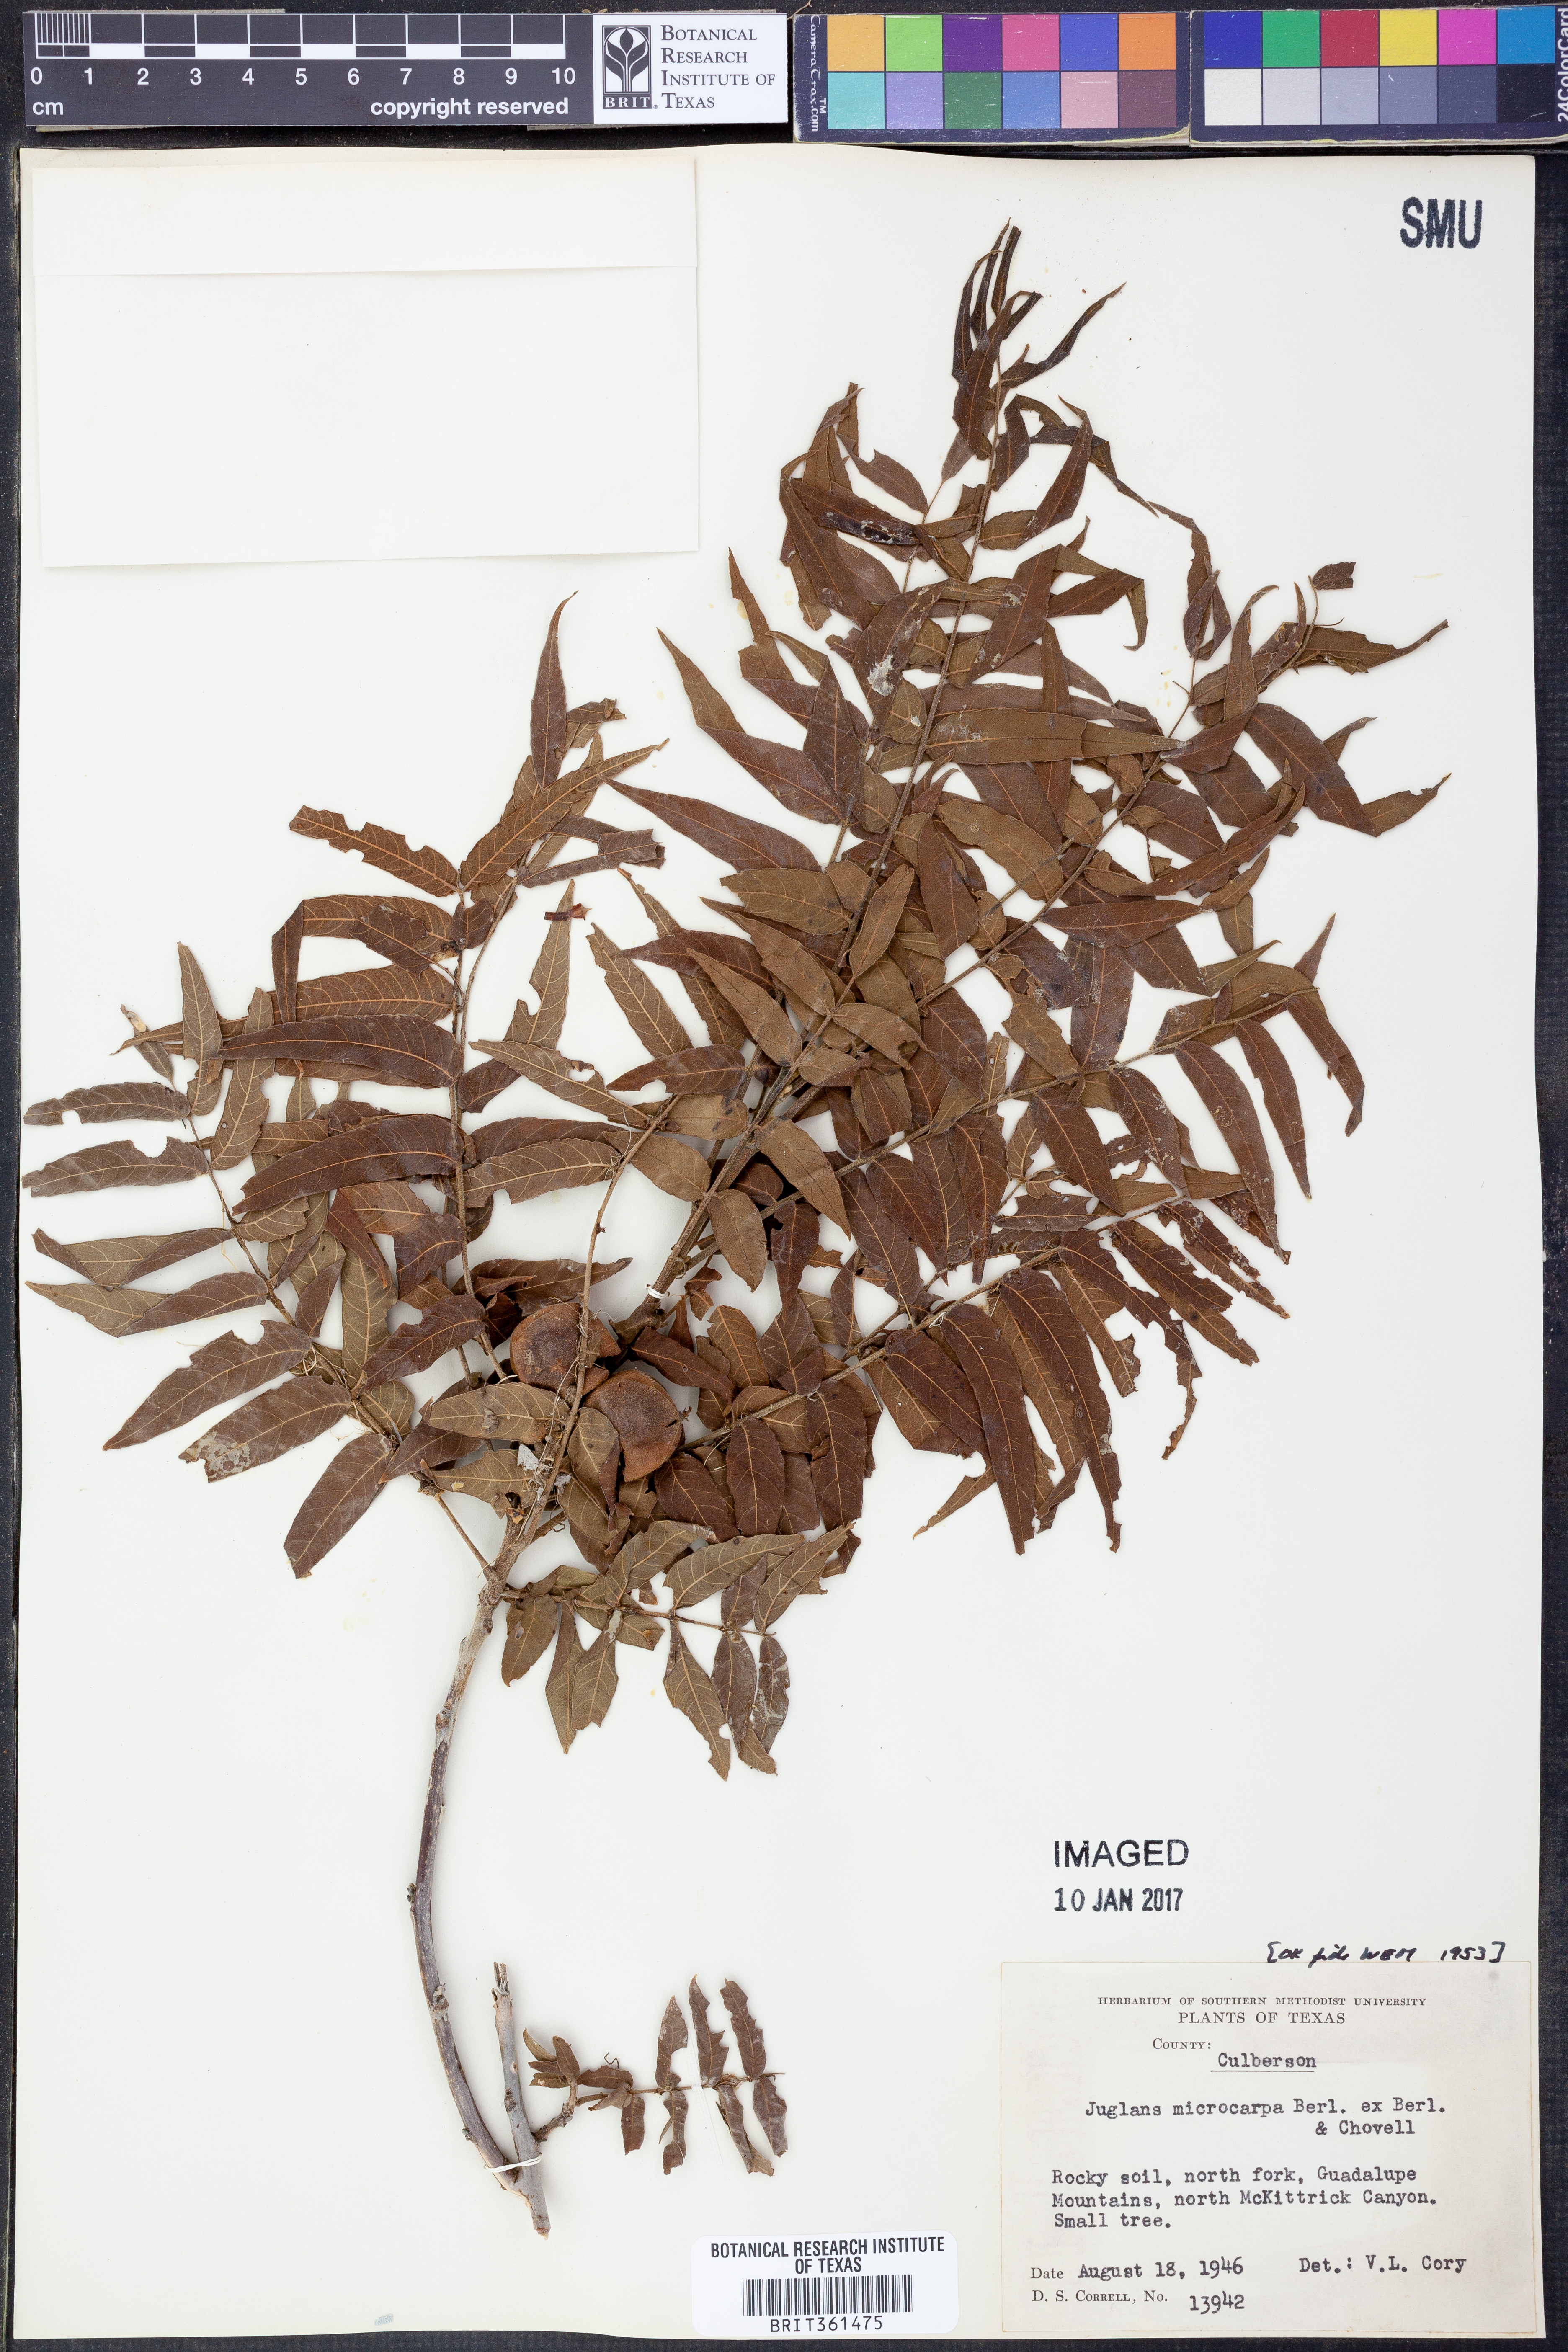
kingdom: Plantae
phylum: Tracheophyta
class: Magnoliopsida
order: Fagales
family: Juglandaceae
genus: Juglans
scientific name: Juglans microcarpa
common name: Texas walnut
